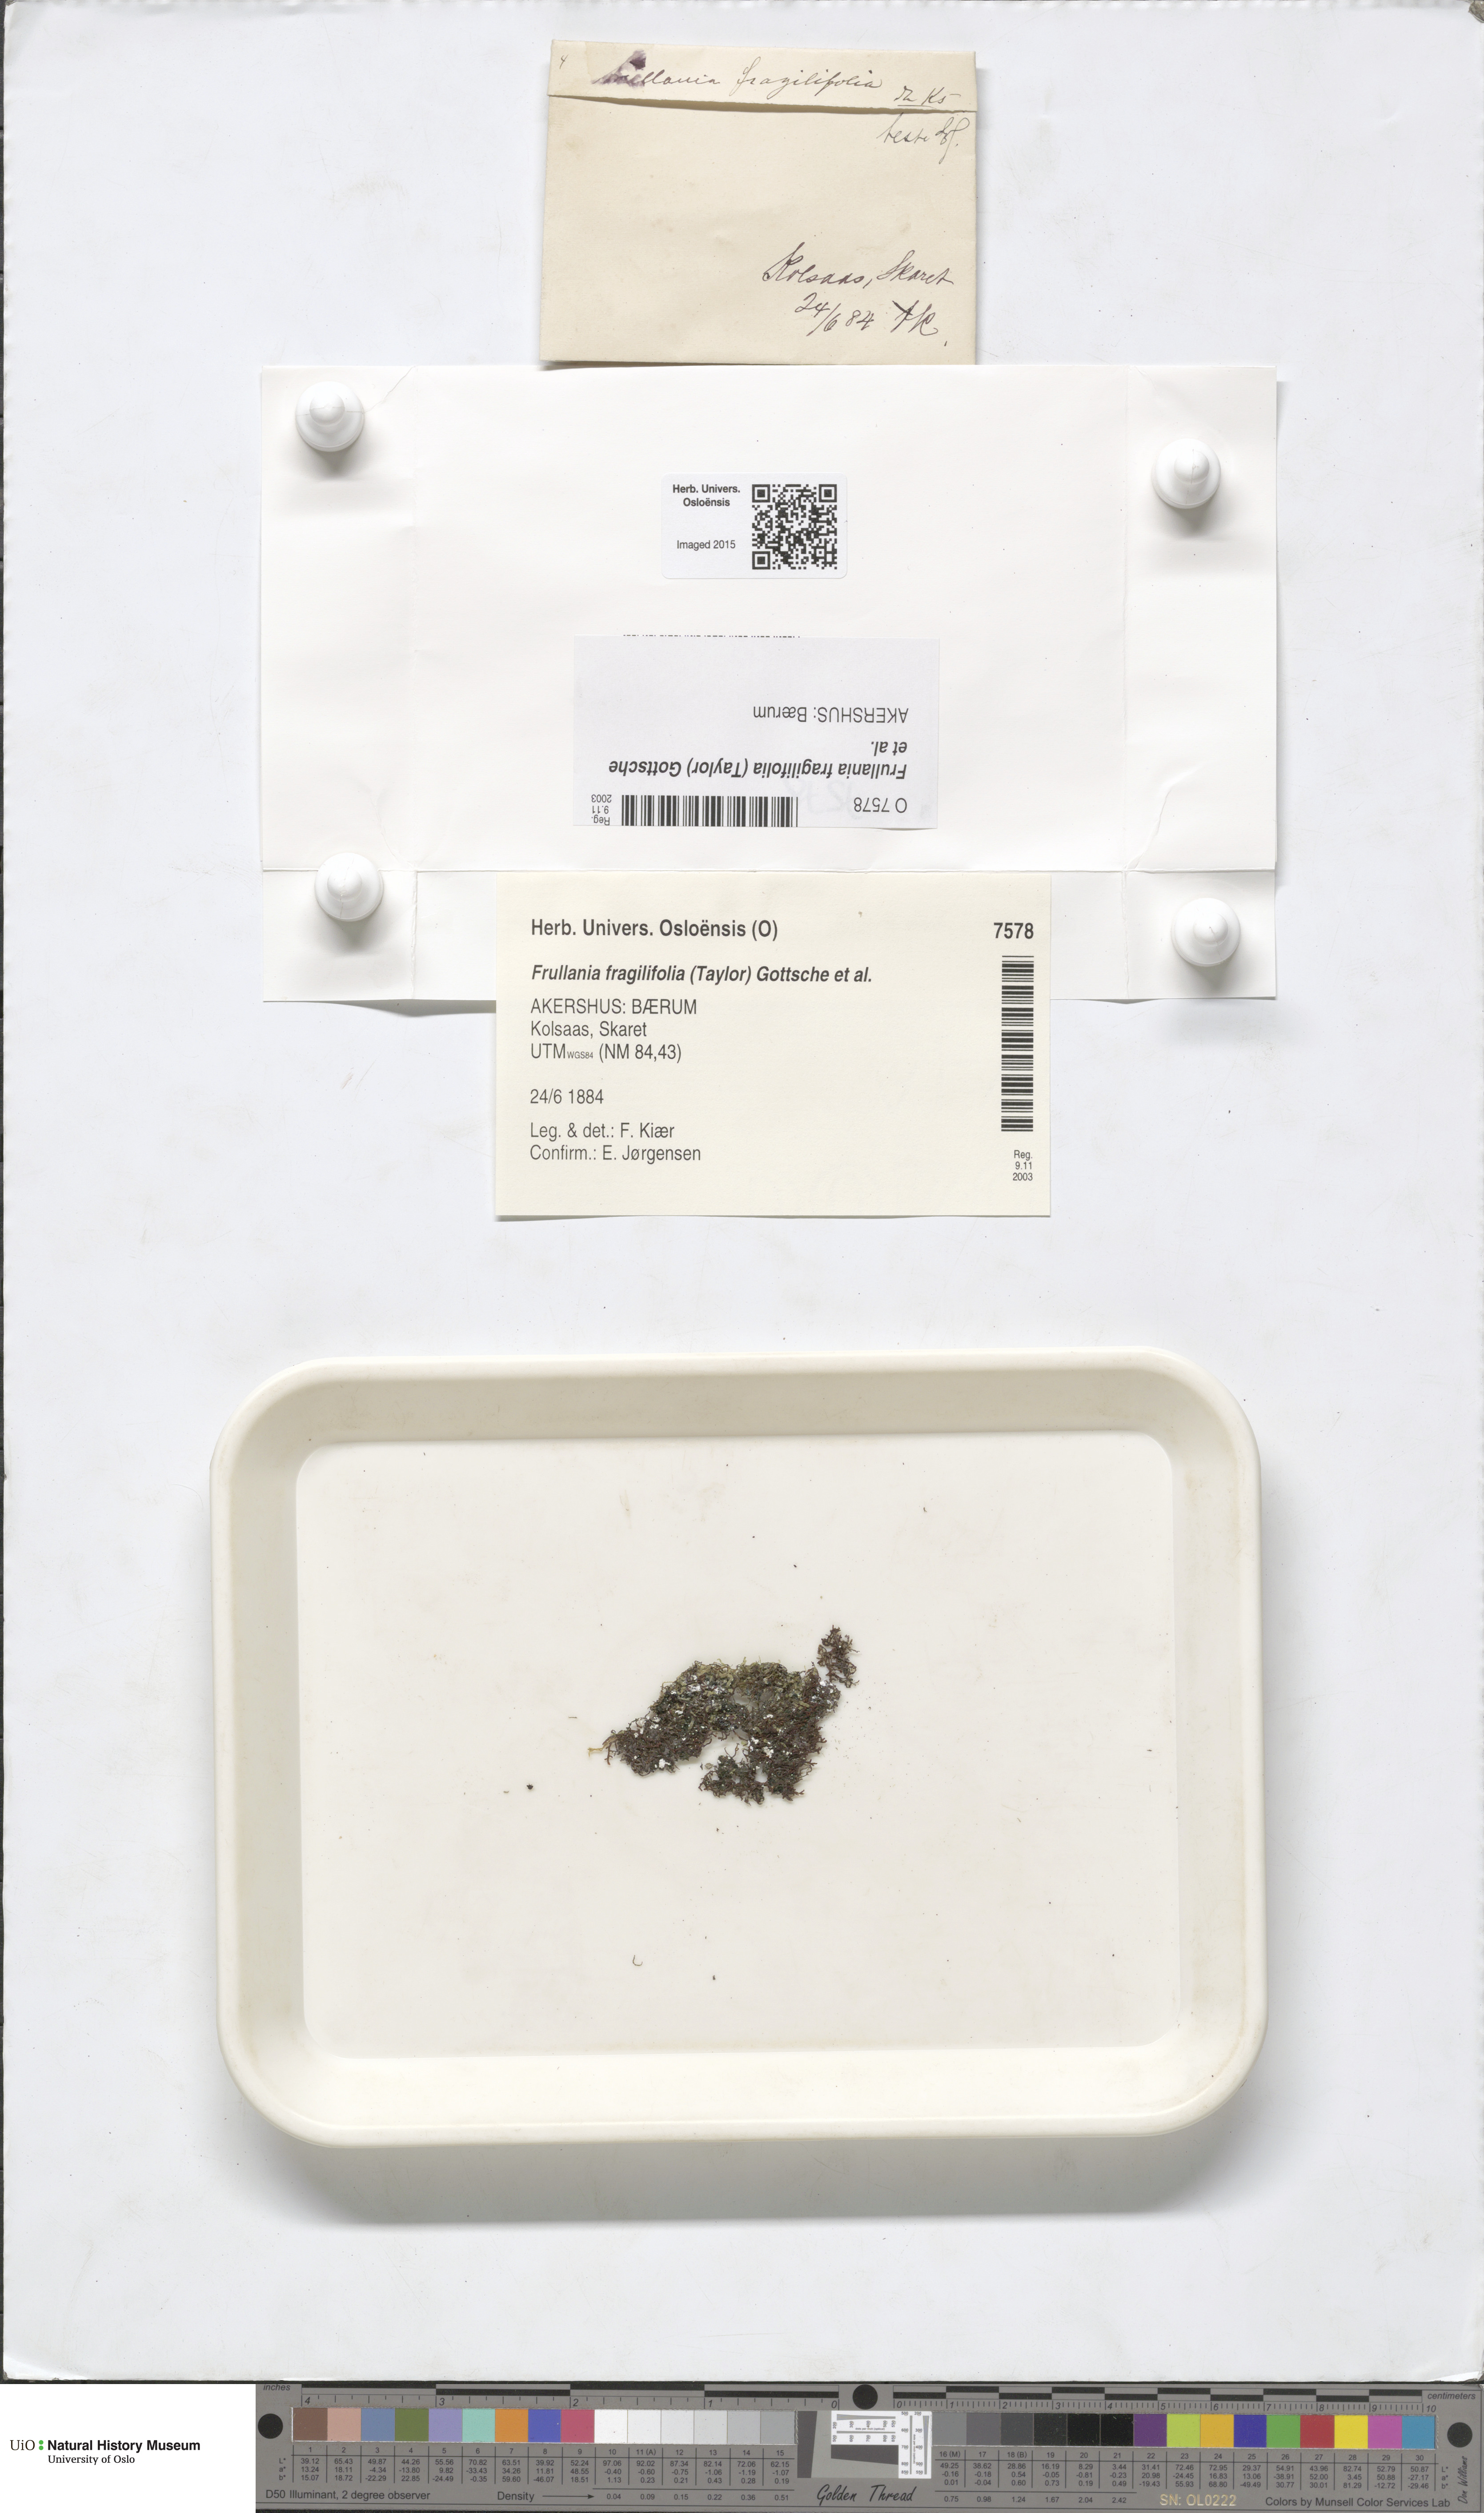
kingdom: Plantae
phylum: Marchantiophyta
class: Jungermanniopsida
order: Porellales
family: Frullaniaceae
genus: Frullania
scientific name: Frullania fragilifolia
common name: Spotty scalewort
